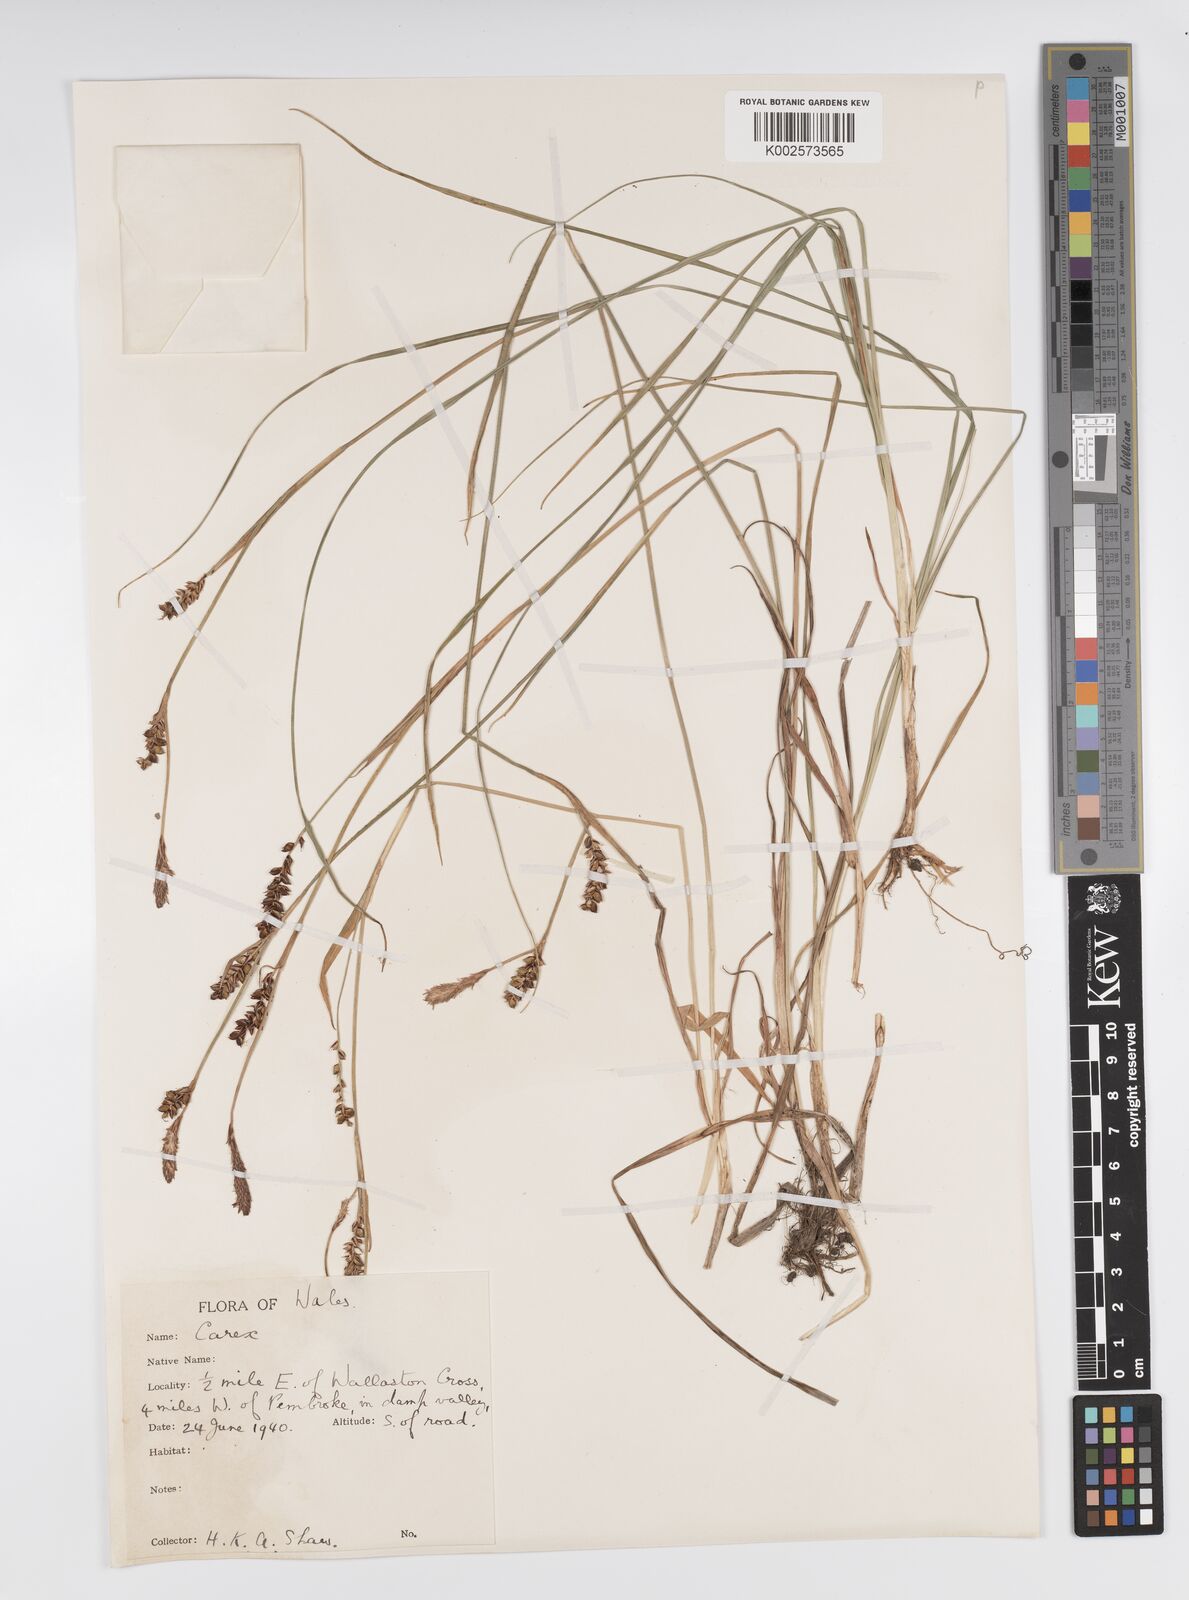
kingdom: Plantae
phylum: Tracheophyta
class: Liliopsida
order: Poales
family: Cyperaceae
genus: Carex
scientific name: Carex panicea
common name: Carnation sedge
